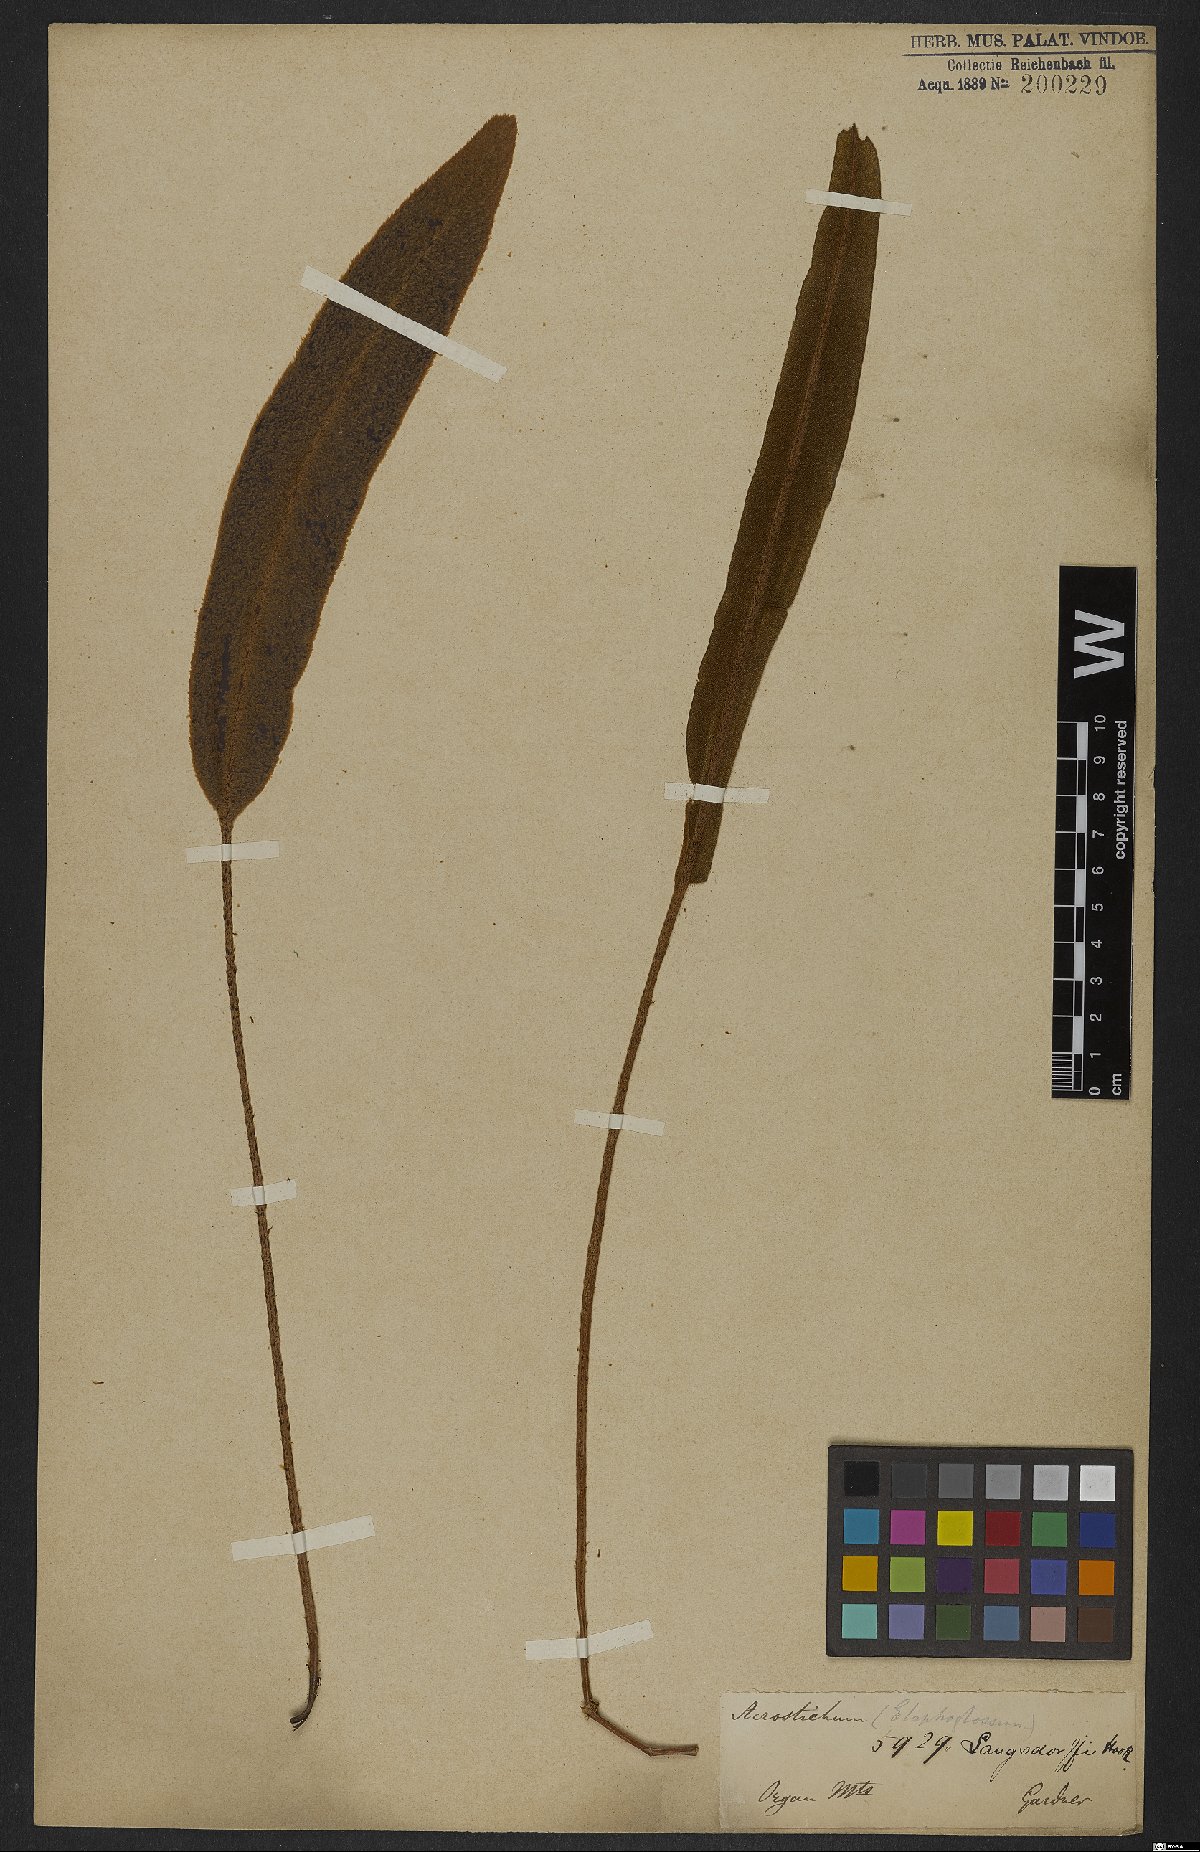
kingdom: Plantae
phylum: Tracheophyta
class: Polypodiopsida
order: Polypodiales
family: Dryopteridaceae
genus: Elaphoglossum
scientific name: Elaphoglossum langsdorffii
